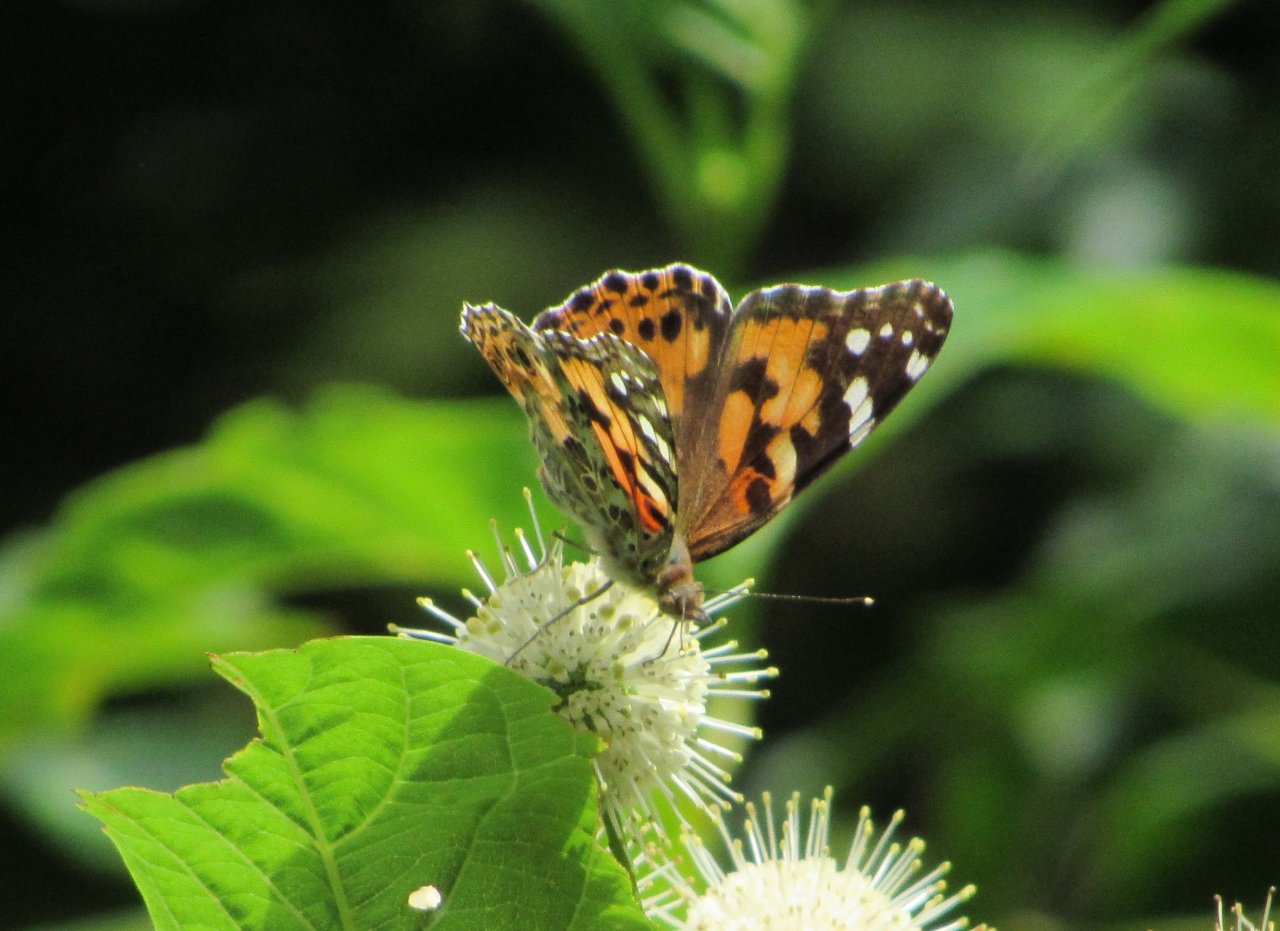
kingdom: Animalia
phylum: Arthropoda
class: Insecta
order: Lepidoptera
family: Nymphalidae
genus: Vanessa
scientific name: Vanessa cardui
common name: Painted Lady
